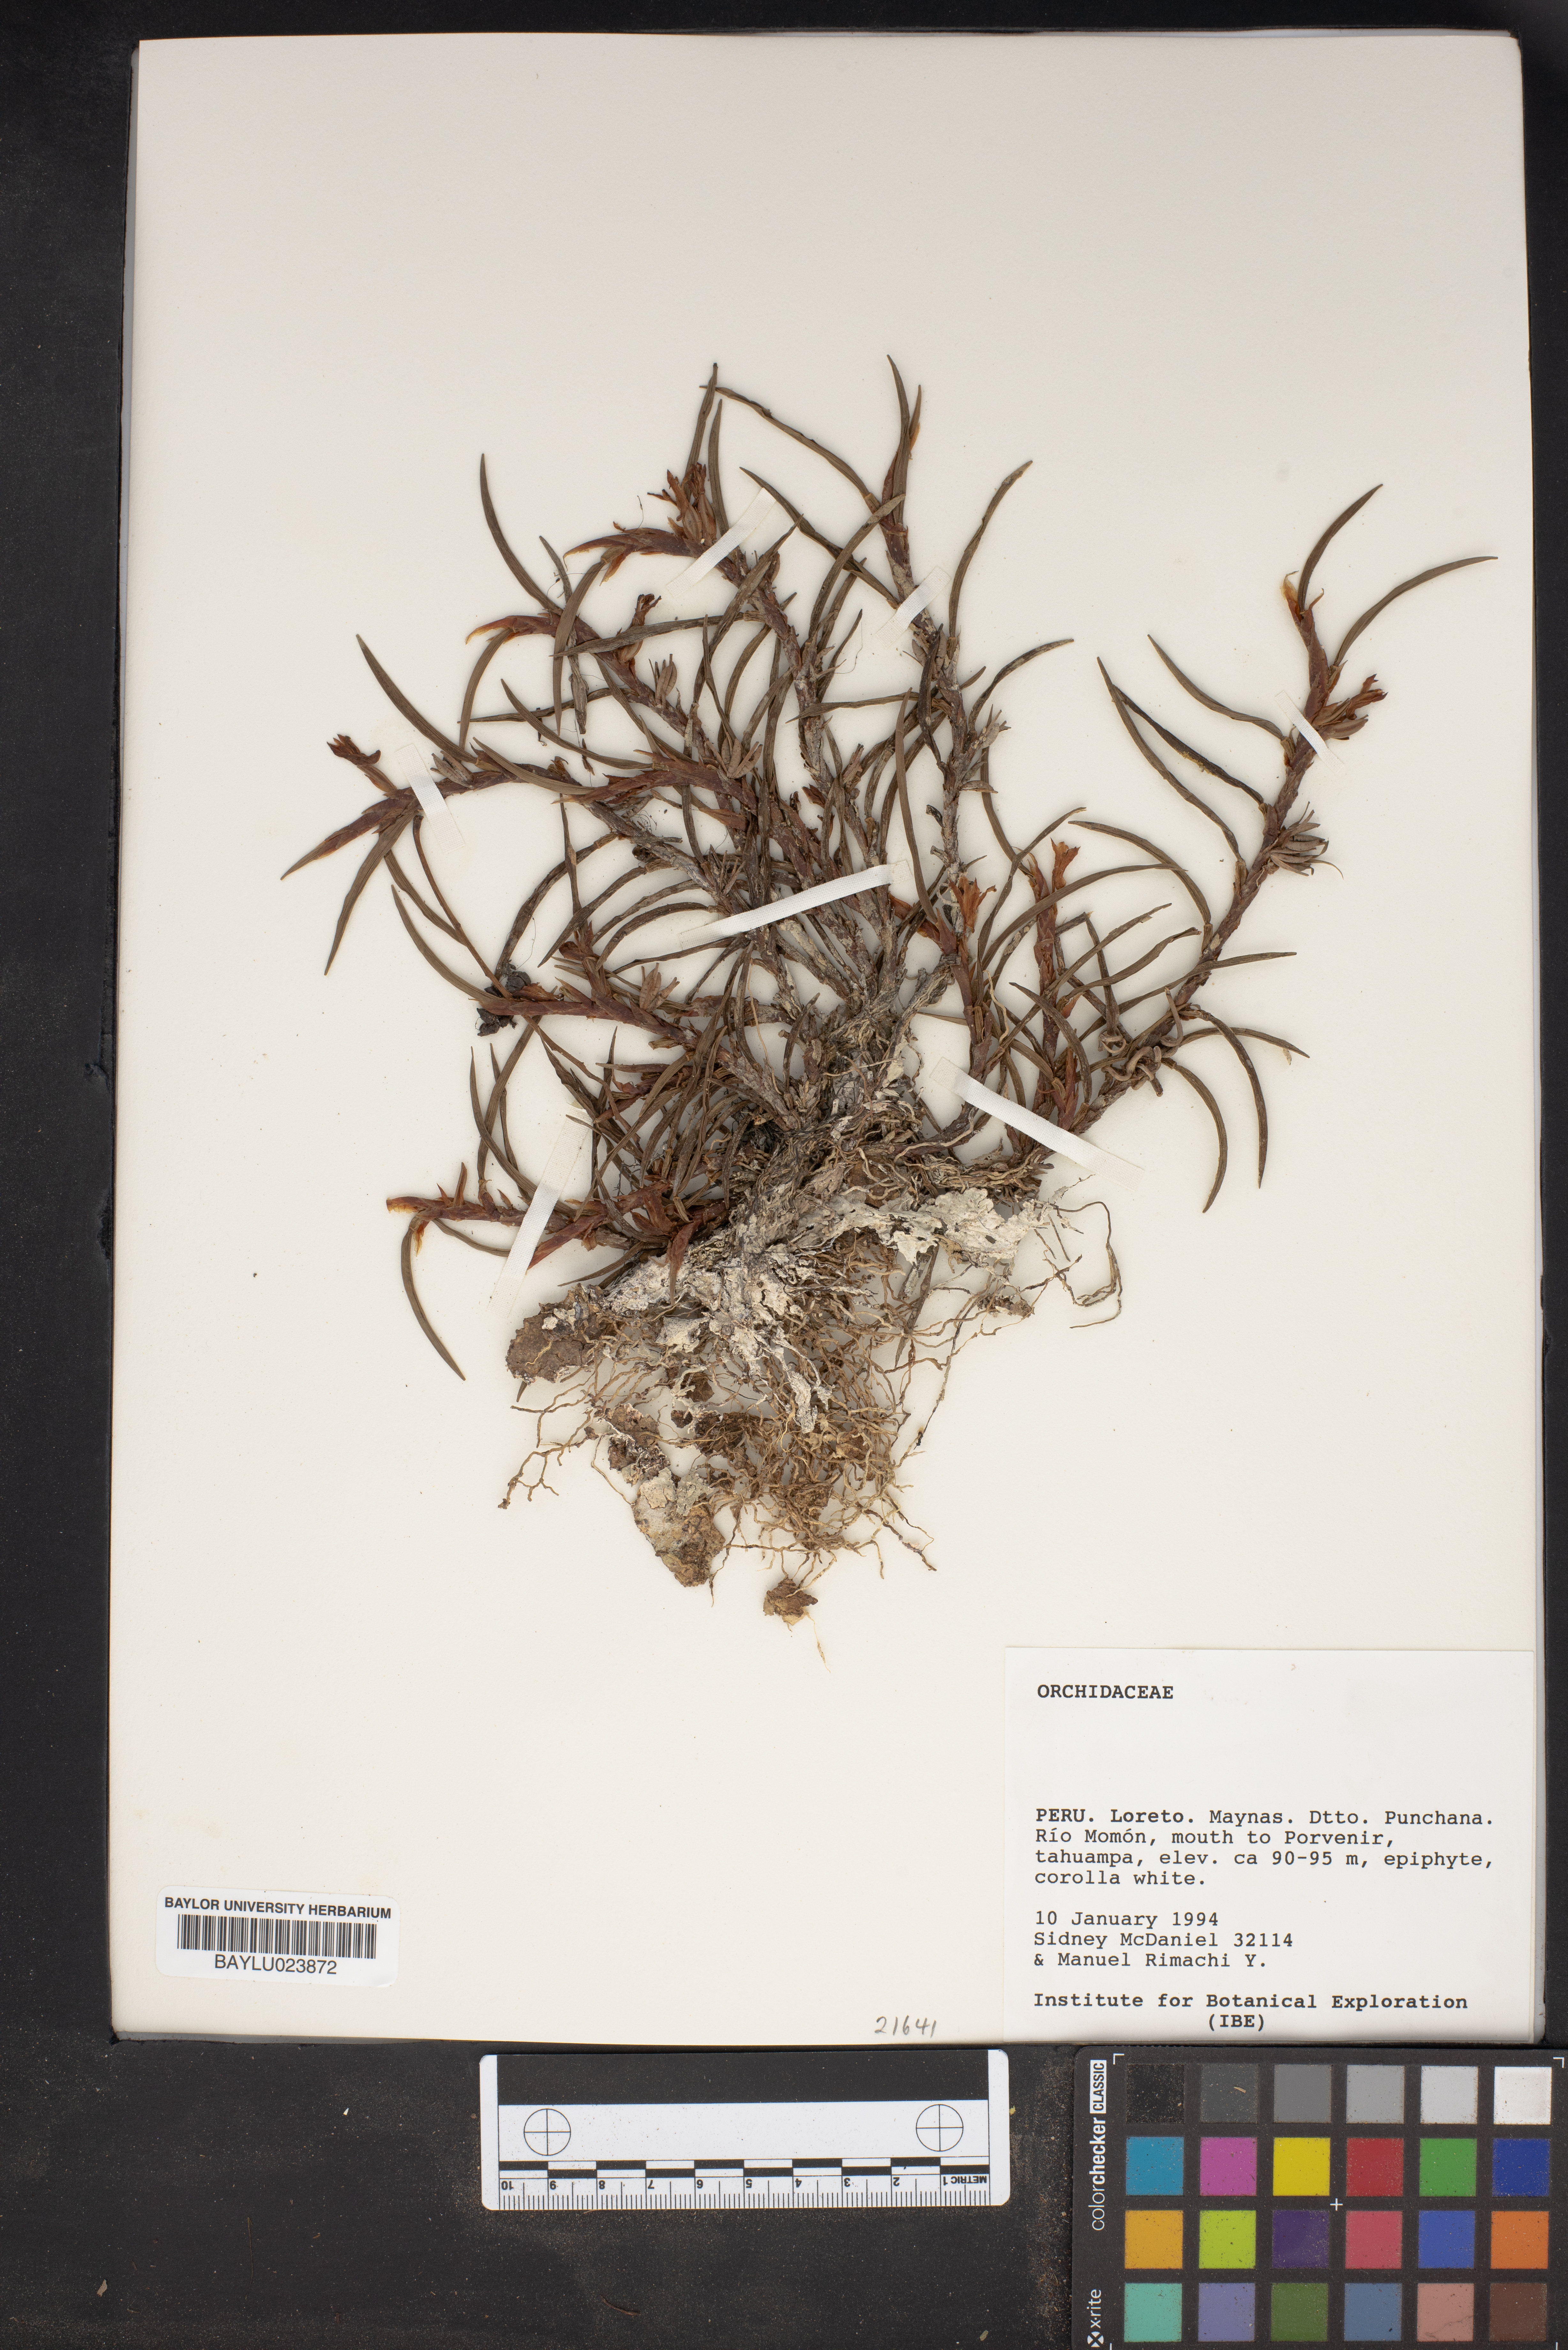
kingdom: Plantae
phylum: Tracheophyta
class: Liliopsida
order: Asparagales
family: Orchidaceae
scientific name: Orchidaceae
